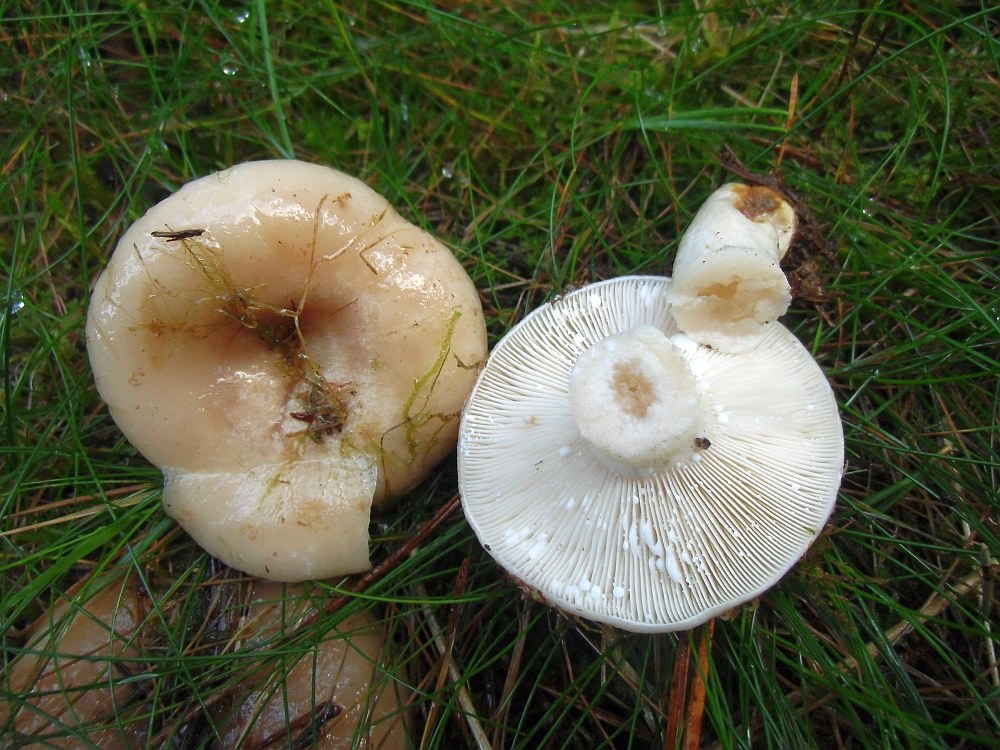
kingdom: Fungi
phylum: Basidiomycota
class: Agaricomycetes
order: Russulales
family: Russulaceae
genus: Lactarius
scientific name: Lactarius musteus
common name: elfenbens-mælkehat
